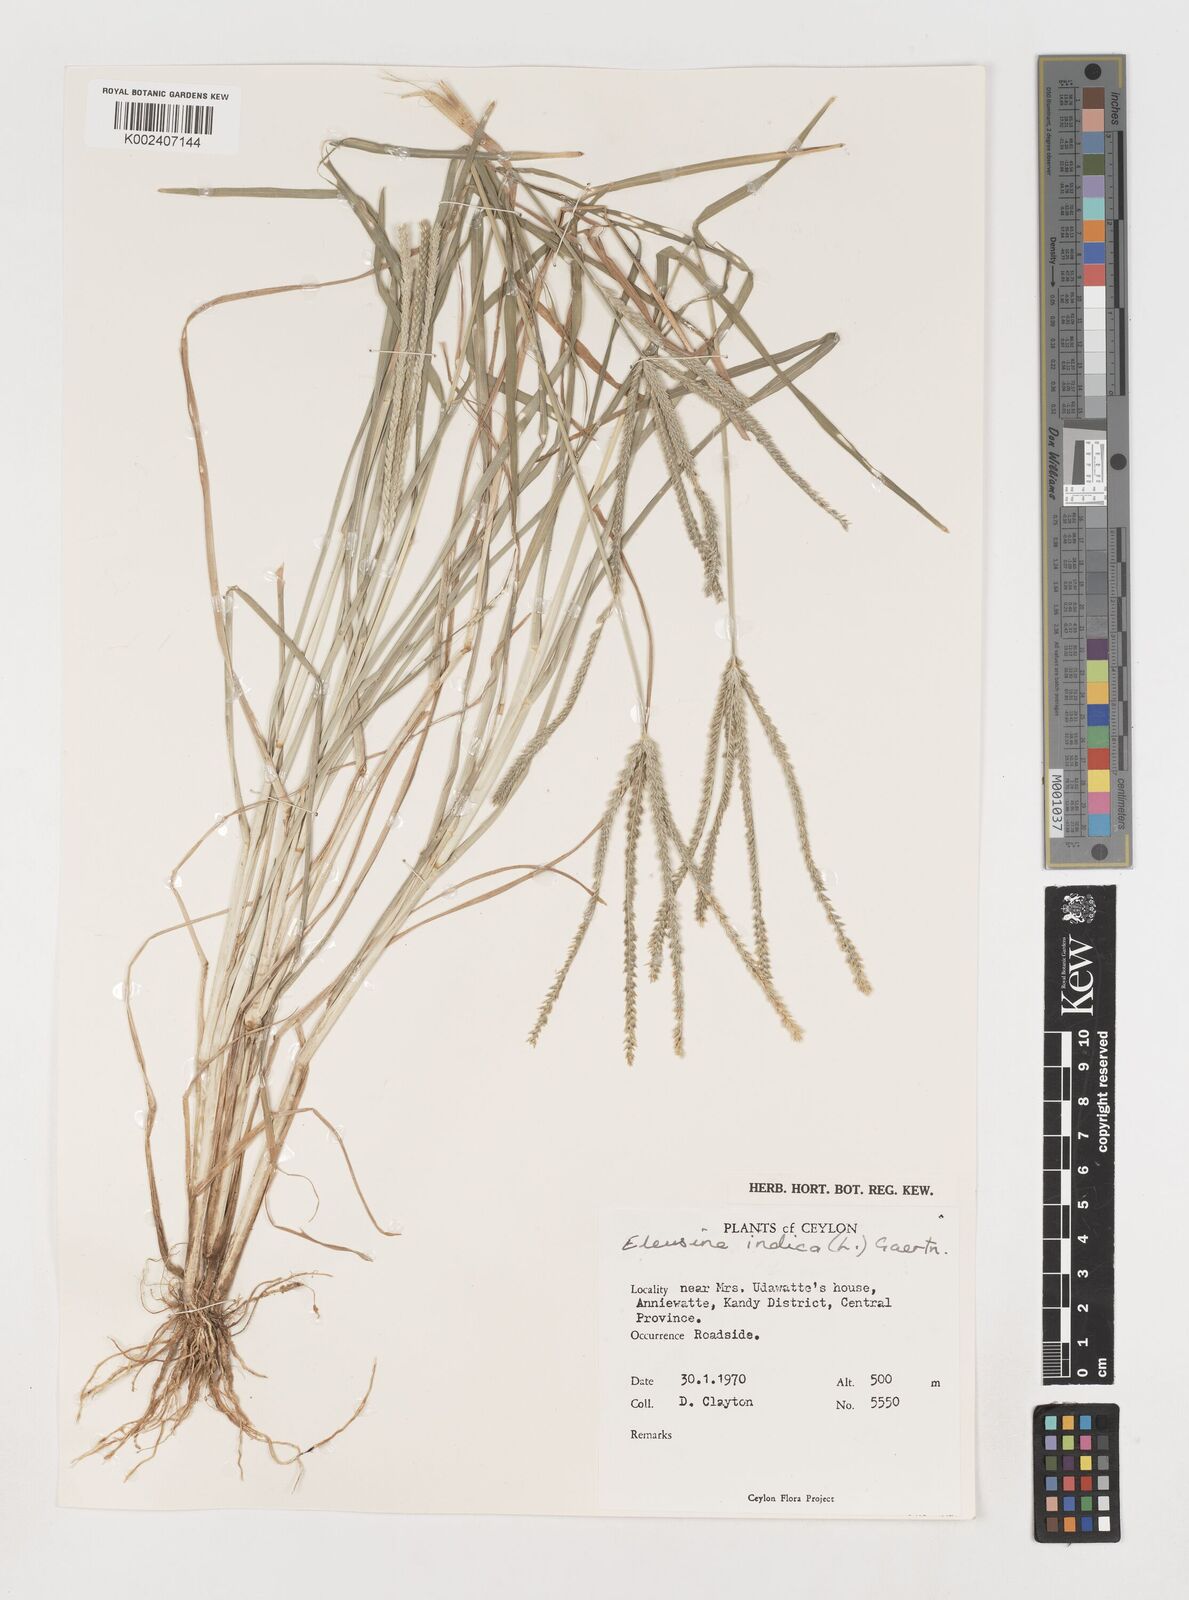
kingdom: Plantae
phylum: Tracheophyta
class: Liliopsida
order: Poales
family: Poaceae
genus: Eleusine
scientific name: Eleusine indica
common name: Yard-grass
